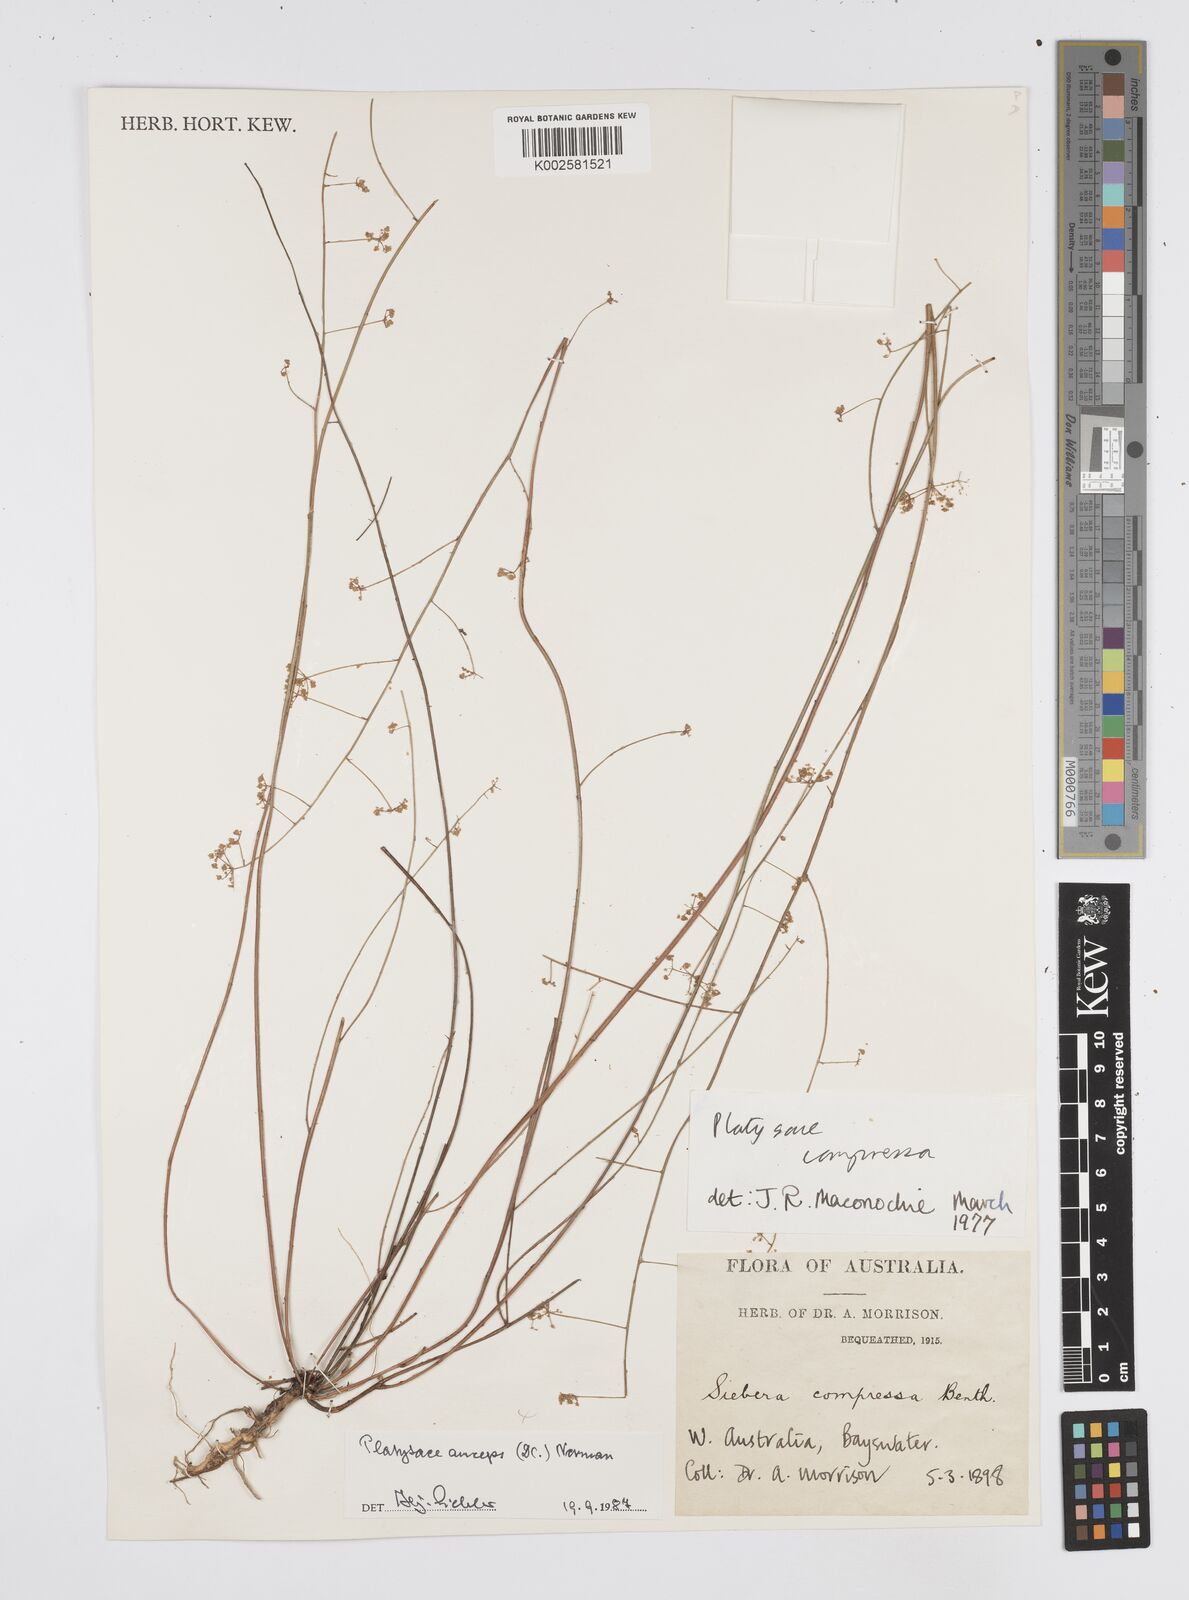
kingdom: Plantae
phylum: Tracheophyta
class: Magnoliopsida
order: Apiales
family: Apiaceae
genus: Centella
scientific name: Centella
